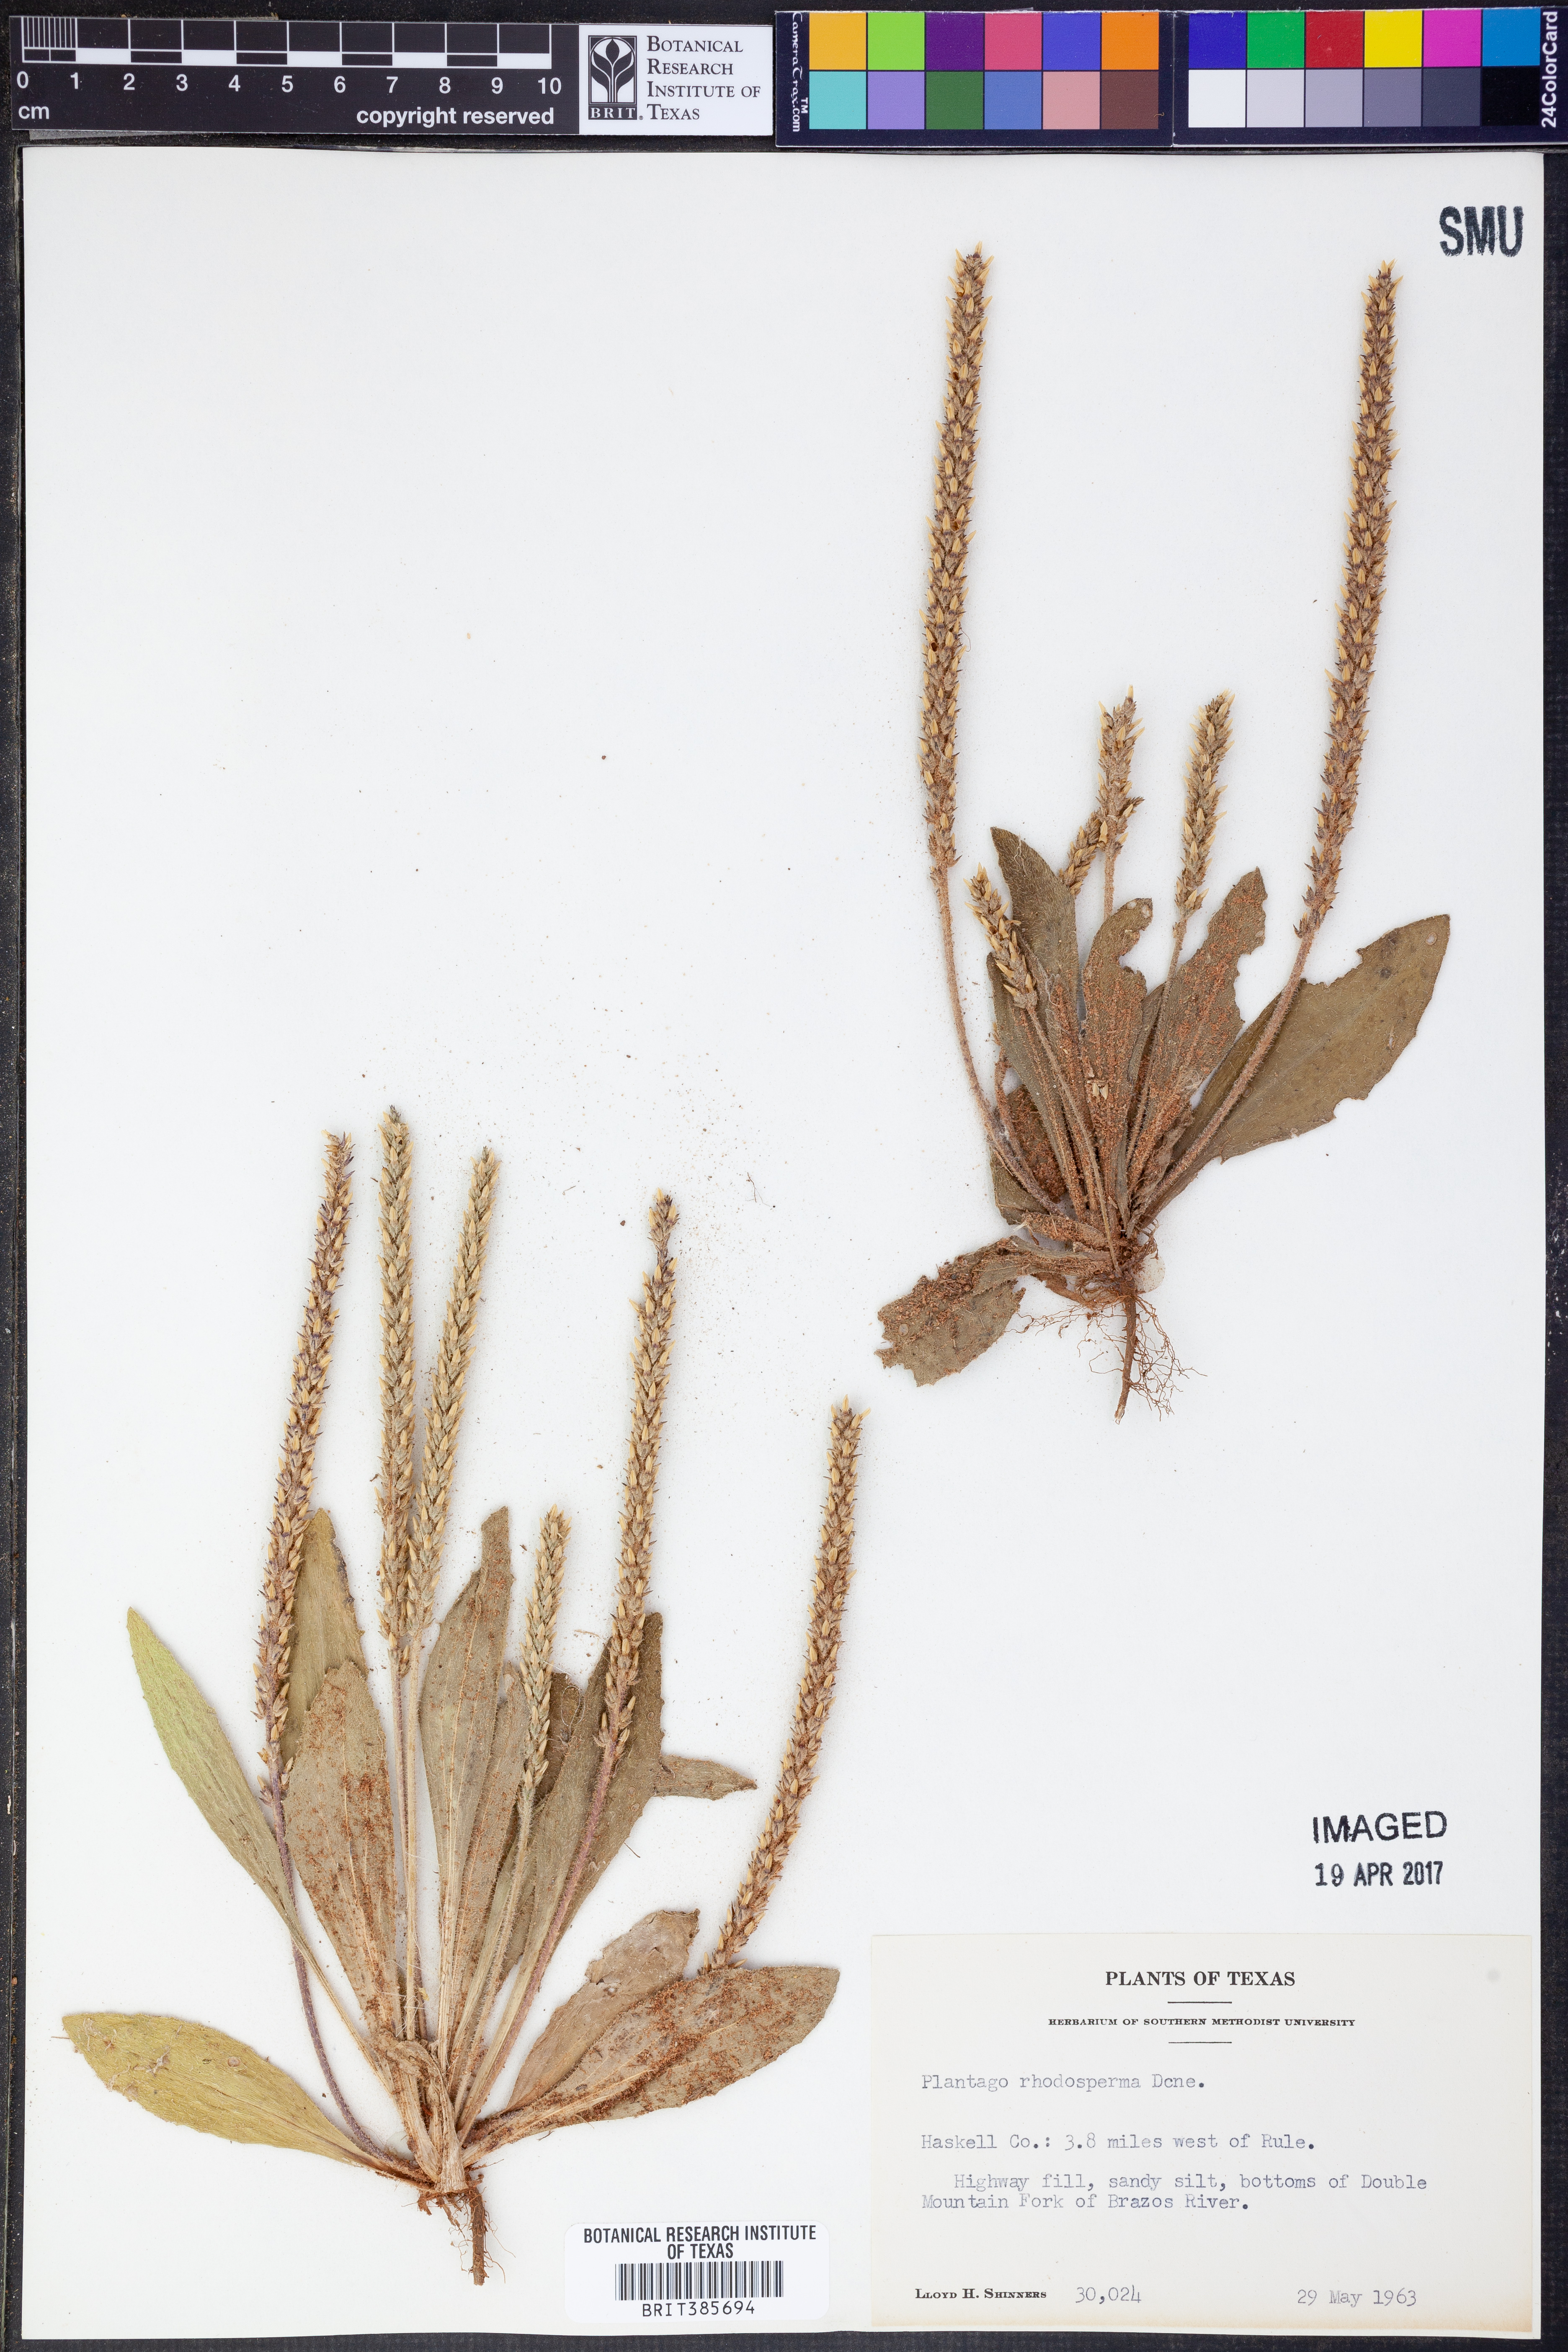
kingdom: Plantae
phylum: Tracheophyta
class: Magnoliopsida
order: Lamiales
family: Plantaginaceae
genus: Plantago
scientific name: Plantago rhodosperma
